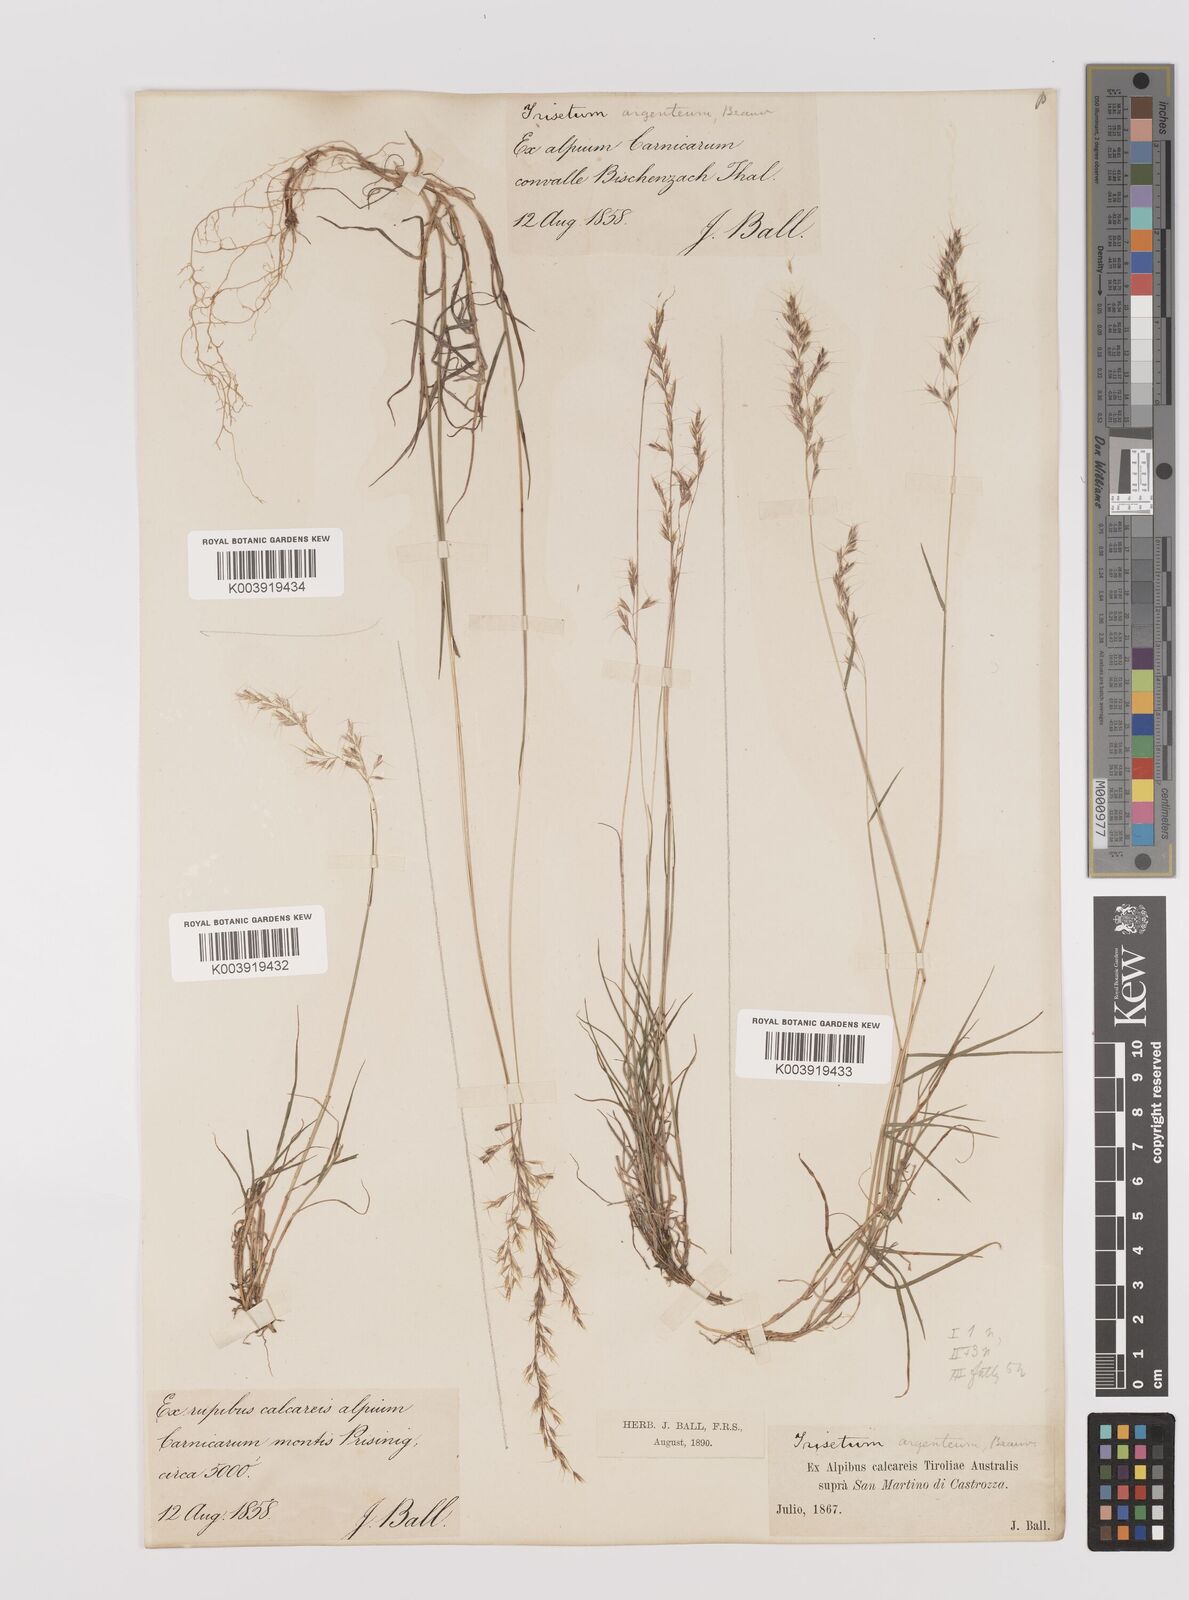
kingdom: Plantae
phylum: Tracheophyta
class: Liliopsida
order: Poales
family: Poaceae
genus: Trisetum
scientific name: Trisetum argenteum
